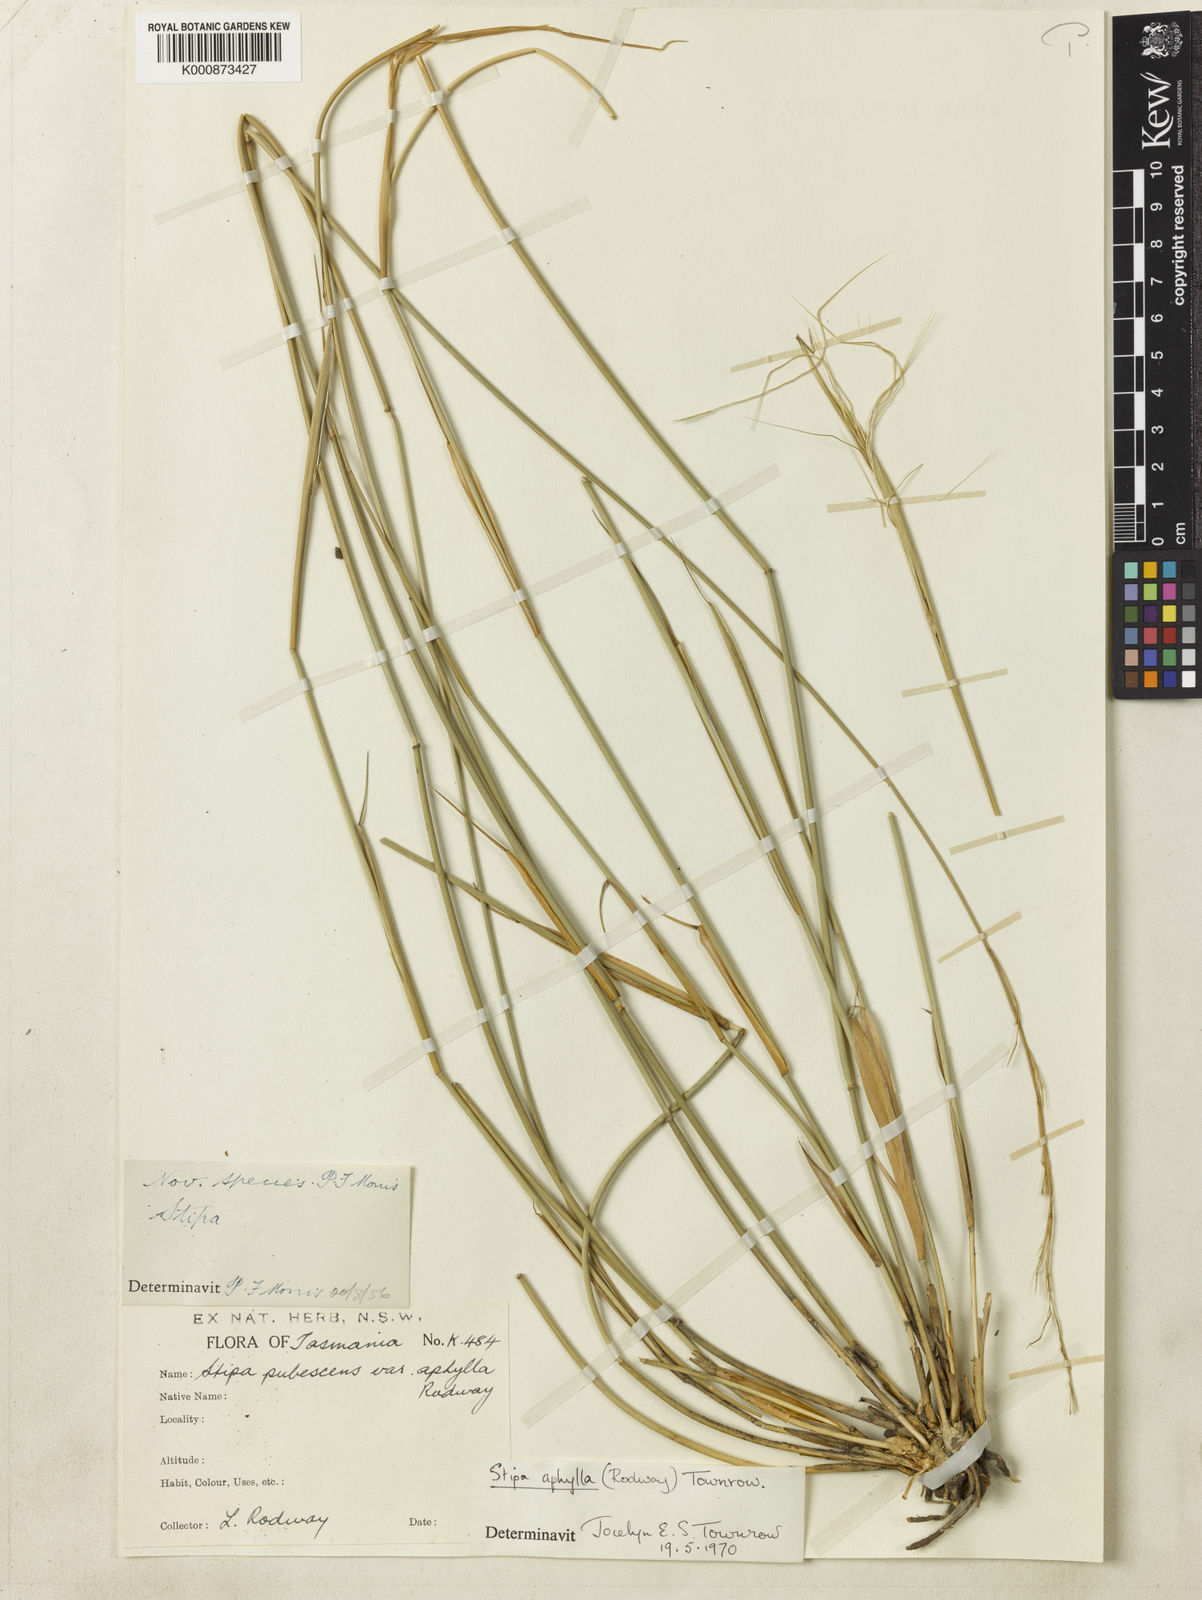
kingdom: Plantae
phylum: Tracheophyta
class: Liliopsida
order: Poales
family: Poaceae
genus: Austrostipa
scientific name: Austrostipa aphylla
